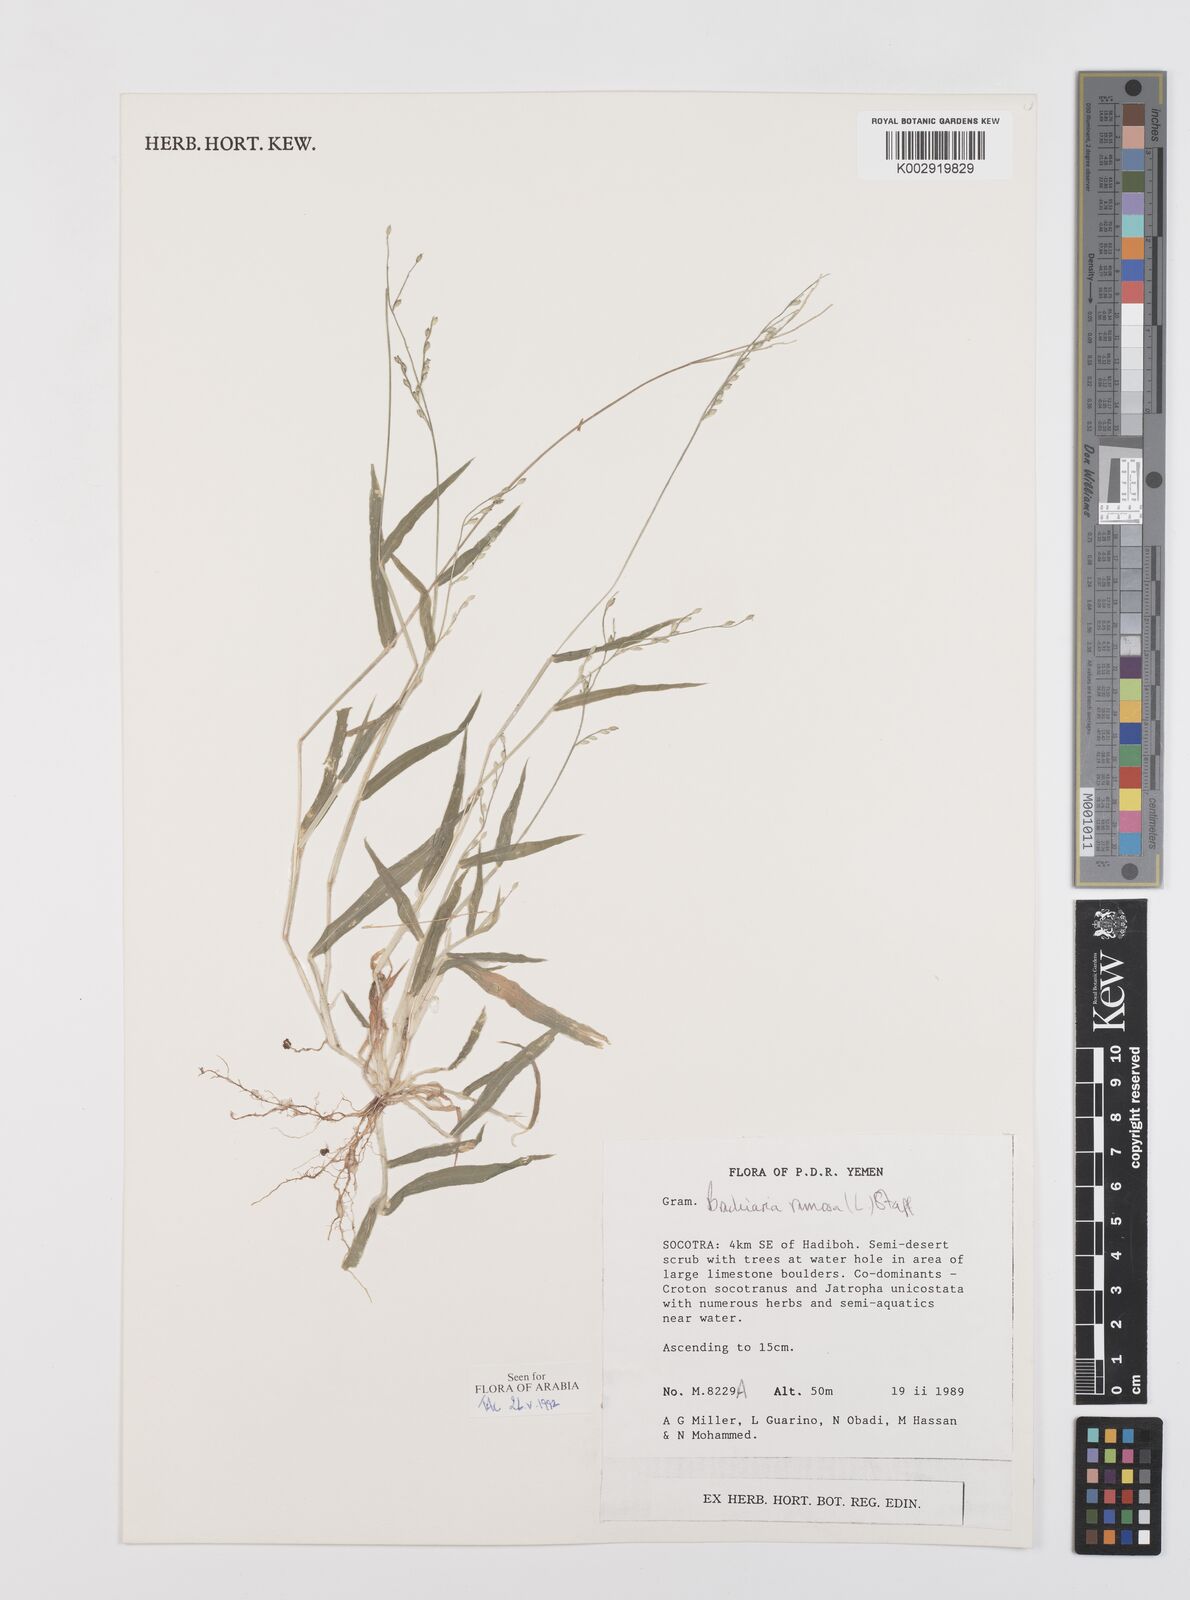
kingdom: Plantae
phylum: Tracheophyta
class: Liliopsida
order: Poales
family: Poaceae
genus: Urochloa
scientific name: Urochloa ramosa
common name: Browntop millet
